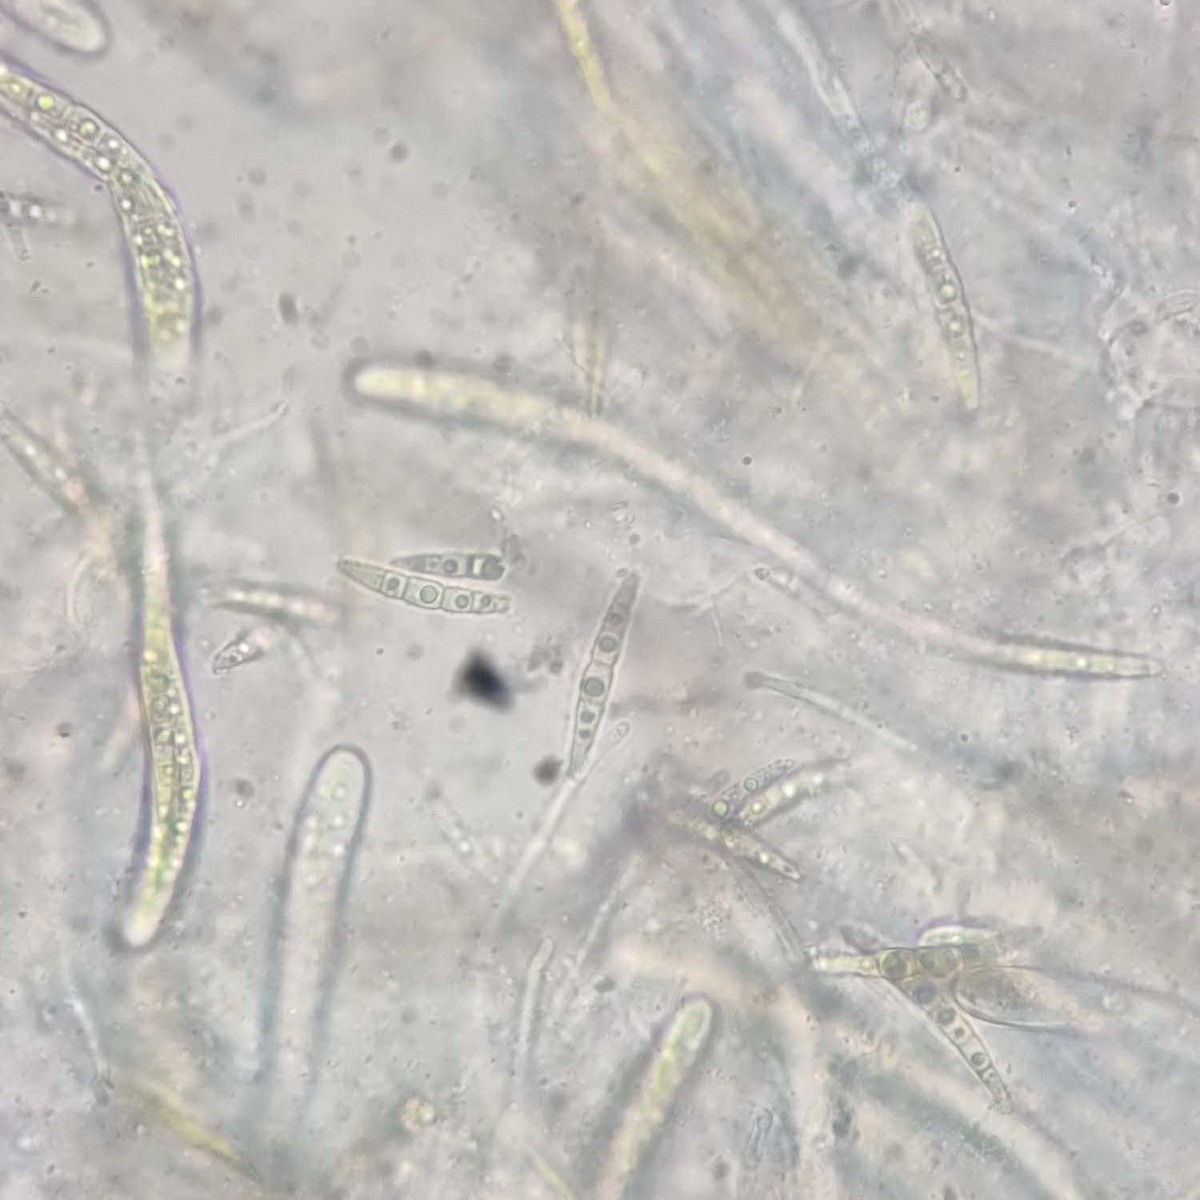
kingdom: Fungi
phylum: Ascomycota
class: Dothideomycetes
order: Pleosporales
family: Phaeosphaeriaceae
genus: Phaeosphaeria
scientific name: Phaeosphaeria sowerbyi
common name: kål-kulkegle
